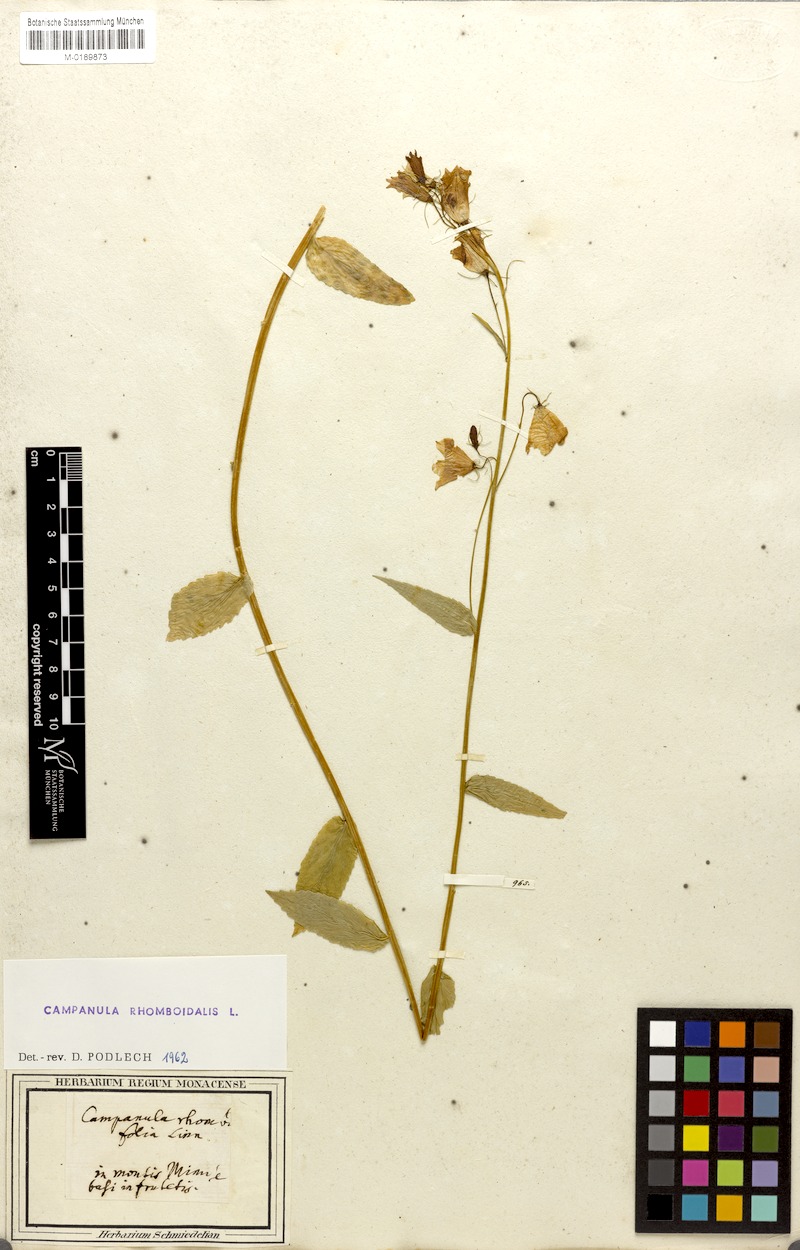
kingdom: Plantae
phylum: Tracheophyta
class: Magnoliopsida
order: Asterales
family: Campanulaceae
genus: Campanula
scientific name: Campanula rhomboidalis
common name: Broad-leaved harebell
